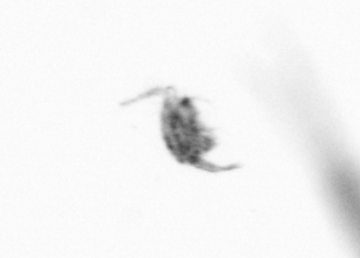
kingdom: Animalia
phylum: Arthropoda
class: Copepoda
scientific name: Copepoda
